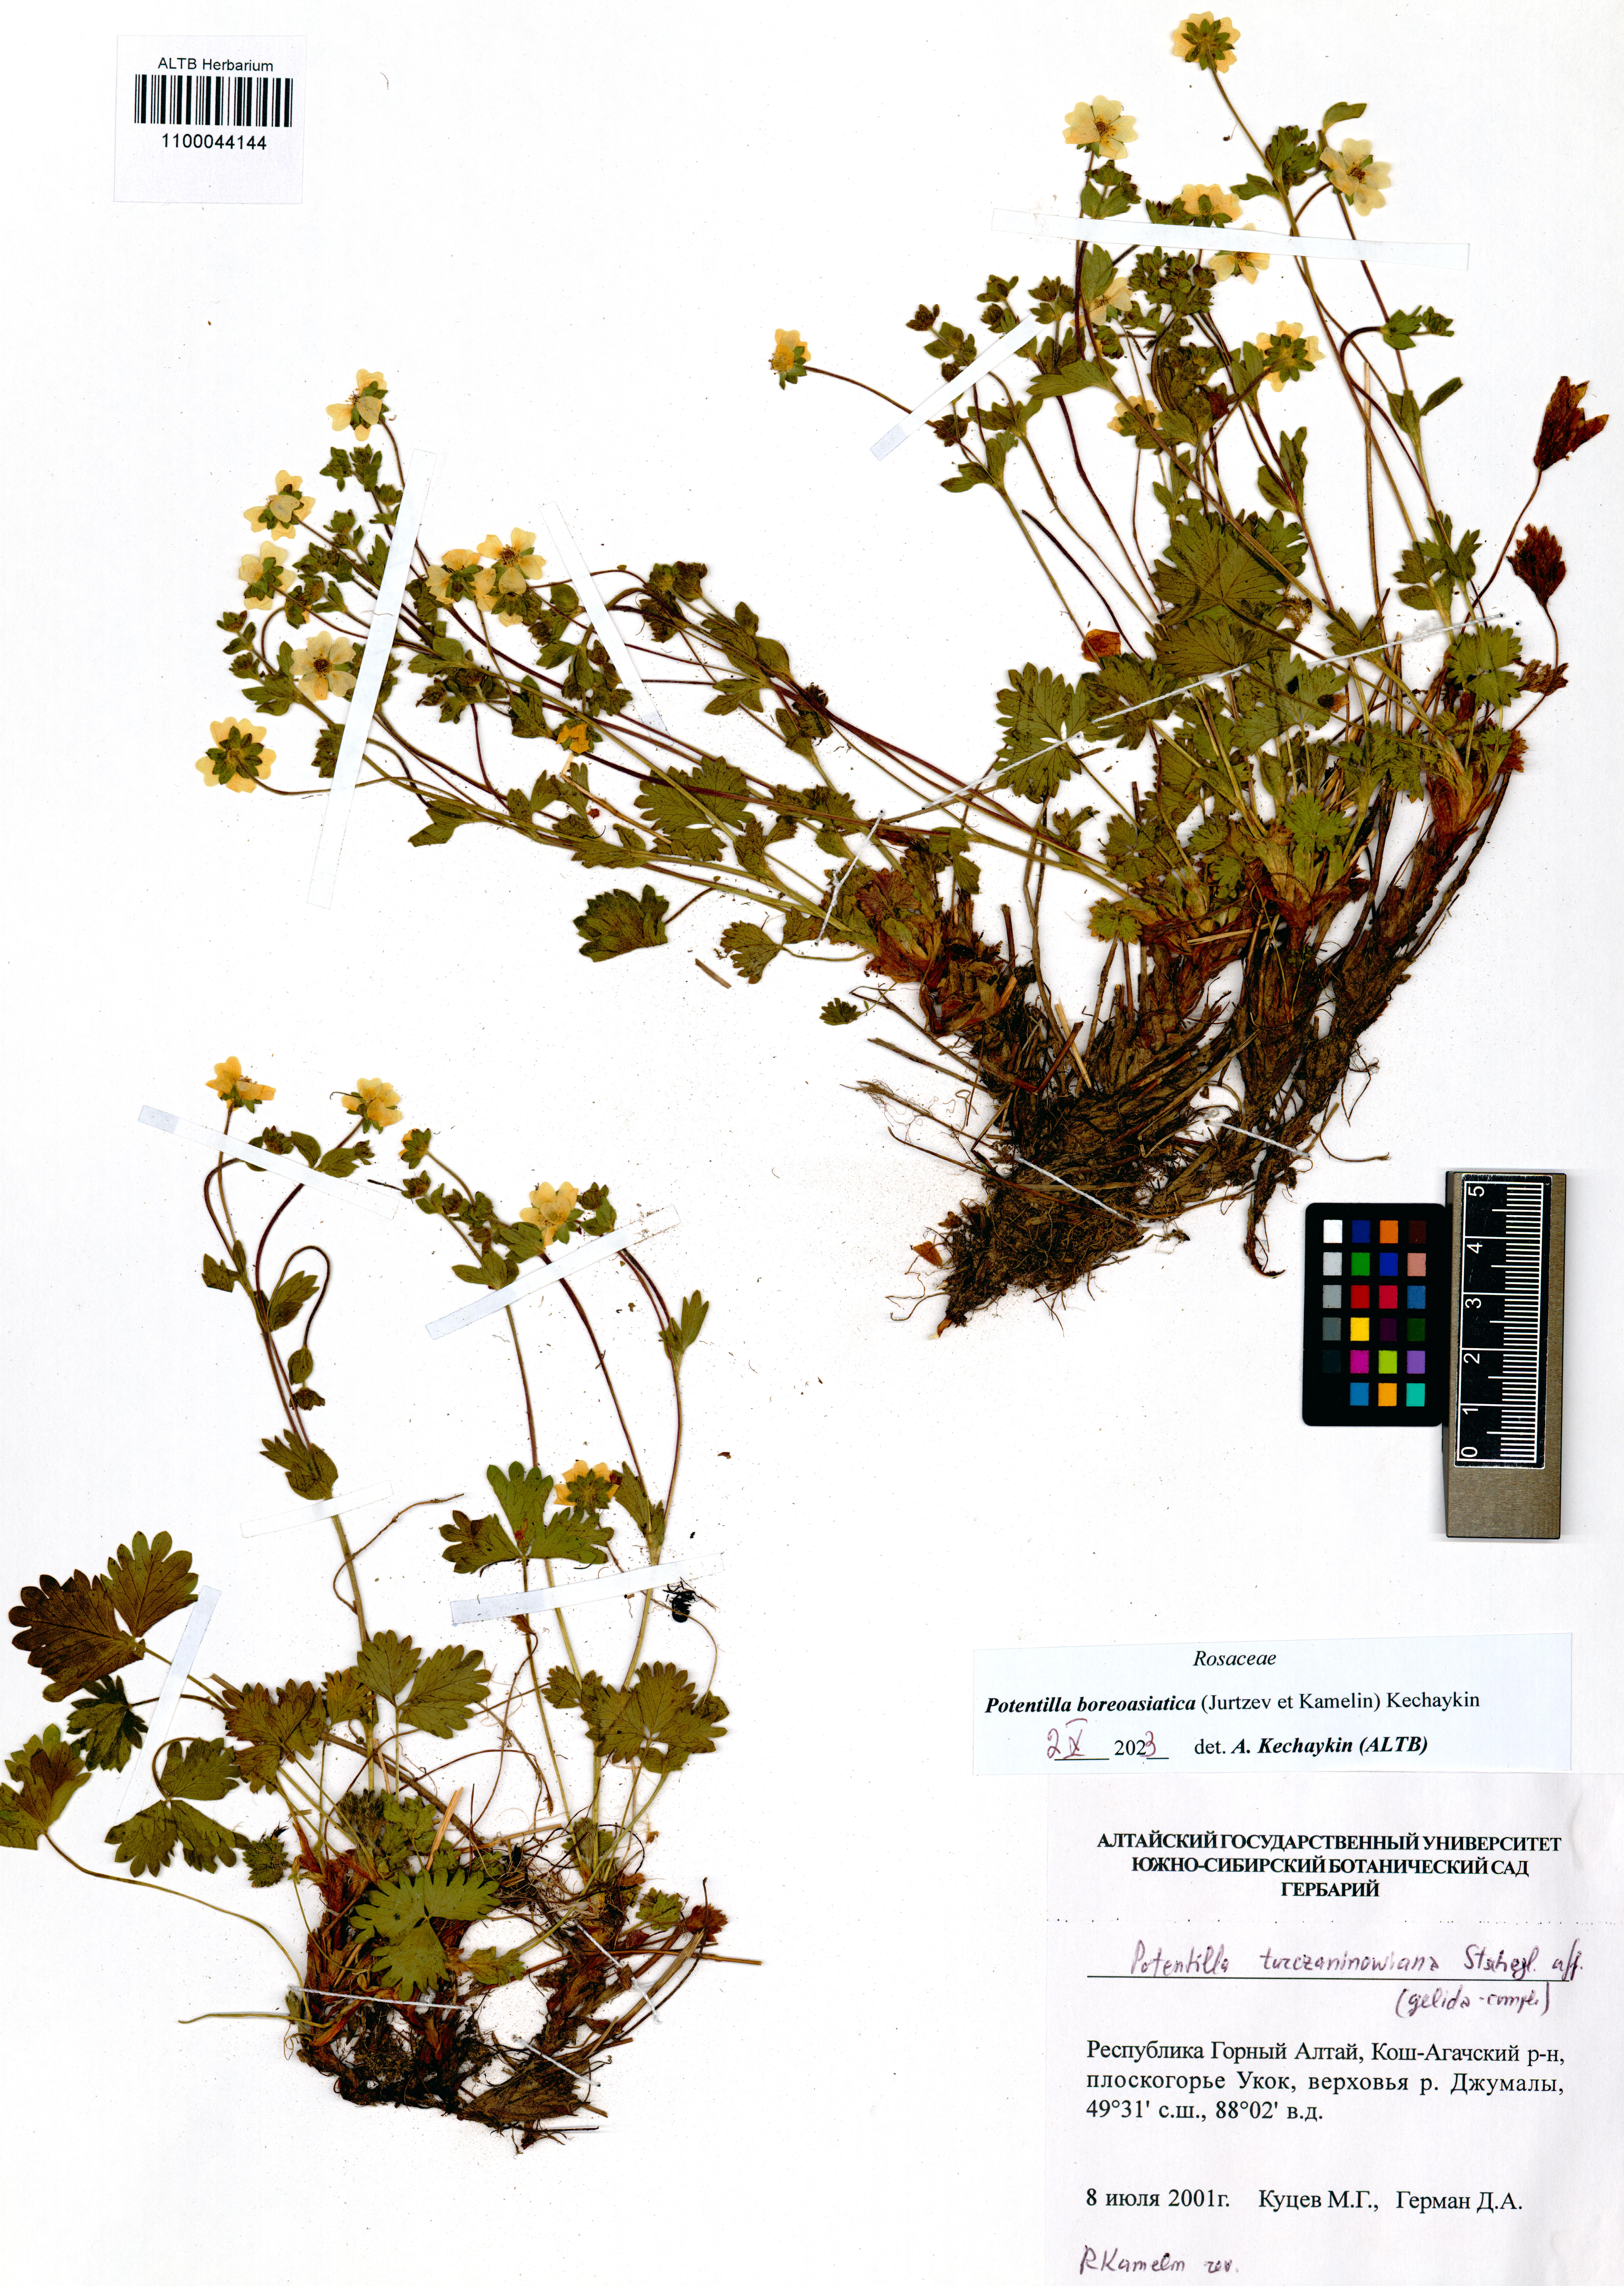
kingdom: Plantae
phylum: Tracheophyta
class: Magnoliopsida
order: Rosales
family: Rosaceae
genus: Potentilla
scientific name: Potentilla
